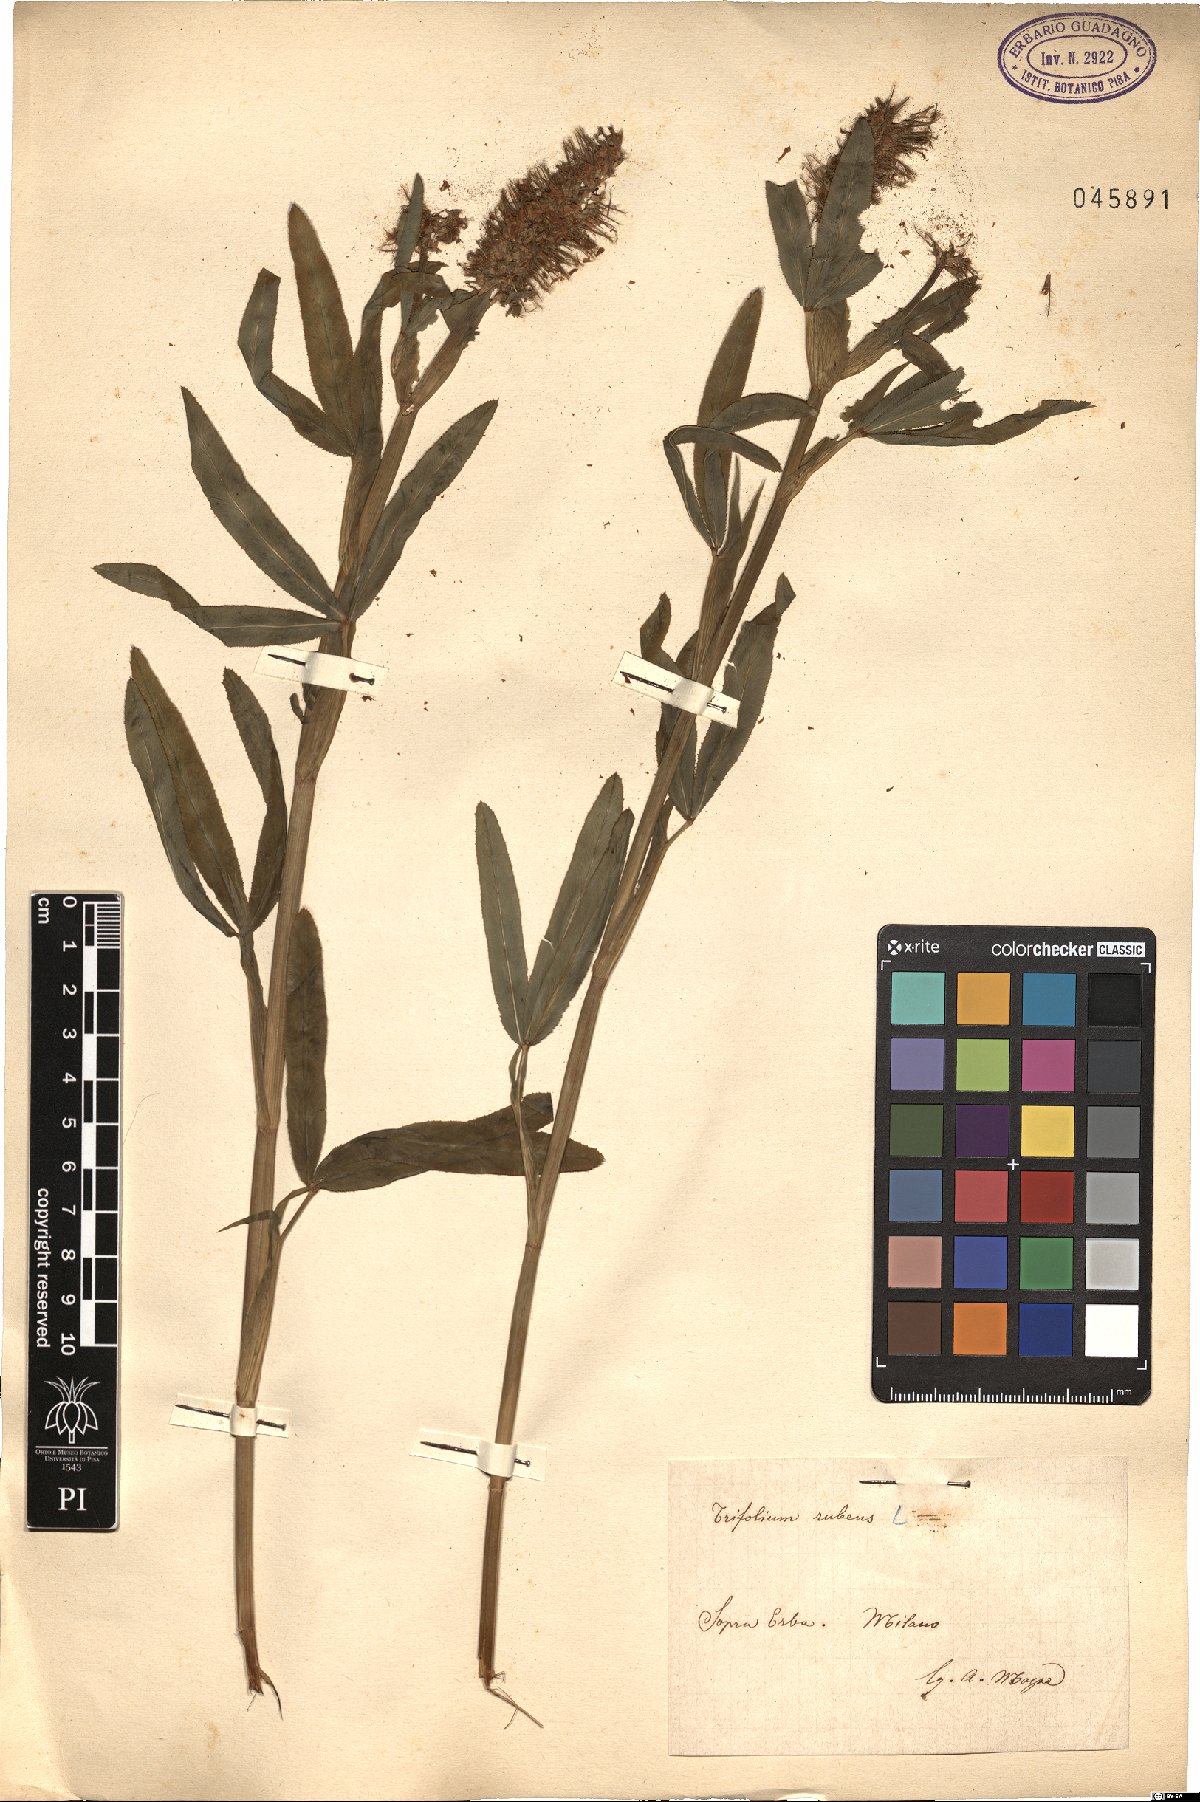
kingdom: Plantae
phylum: Tracheophyta
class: Magnoliopsida
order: Fabales
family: Fabaceae
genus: Trifolium
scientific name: Trifolium rubens
